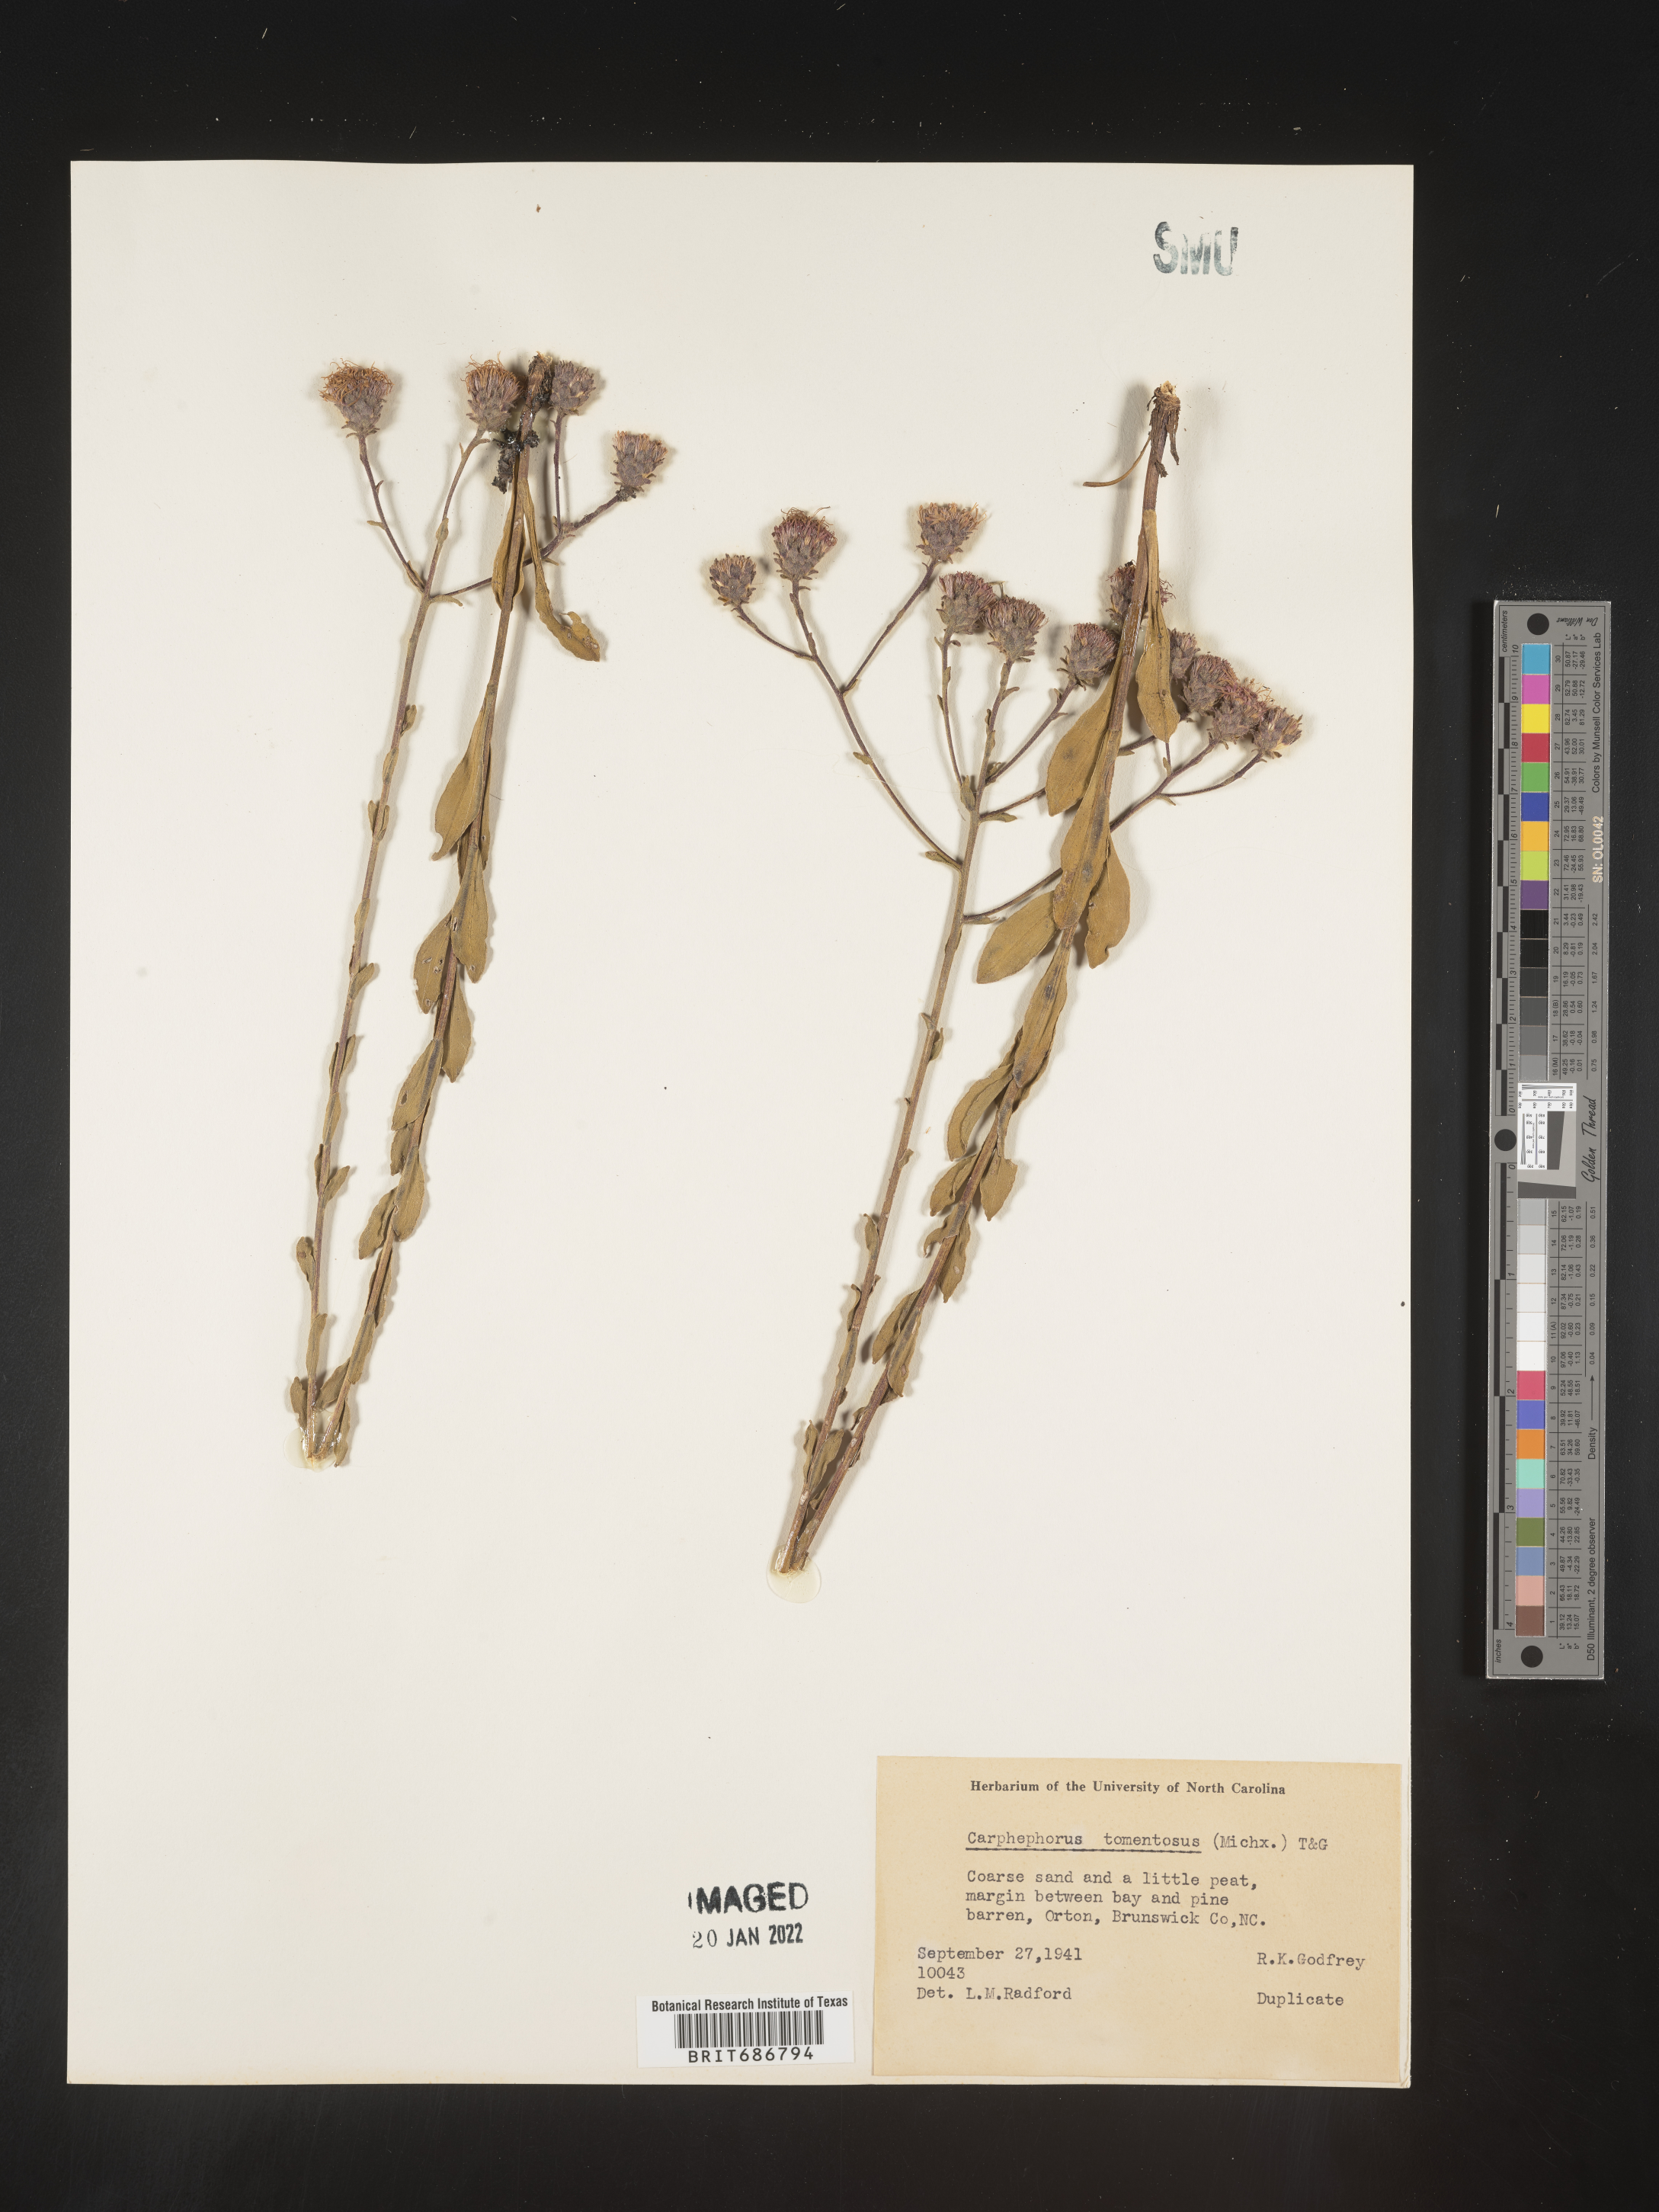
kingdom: Plantae
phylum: Tracheophyta
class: Magnoliopsida
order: Asterales
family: Asteraceae
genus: Carphephorus
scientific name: Carphephorus tomentosus
